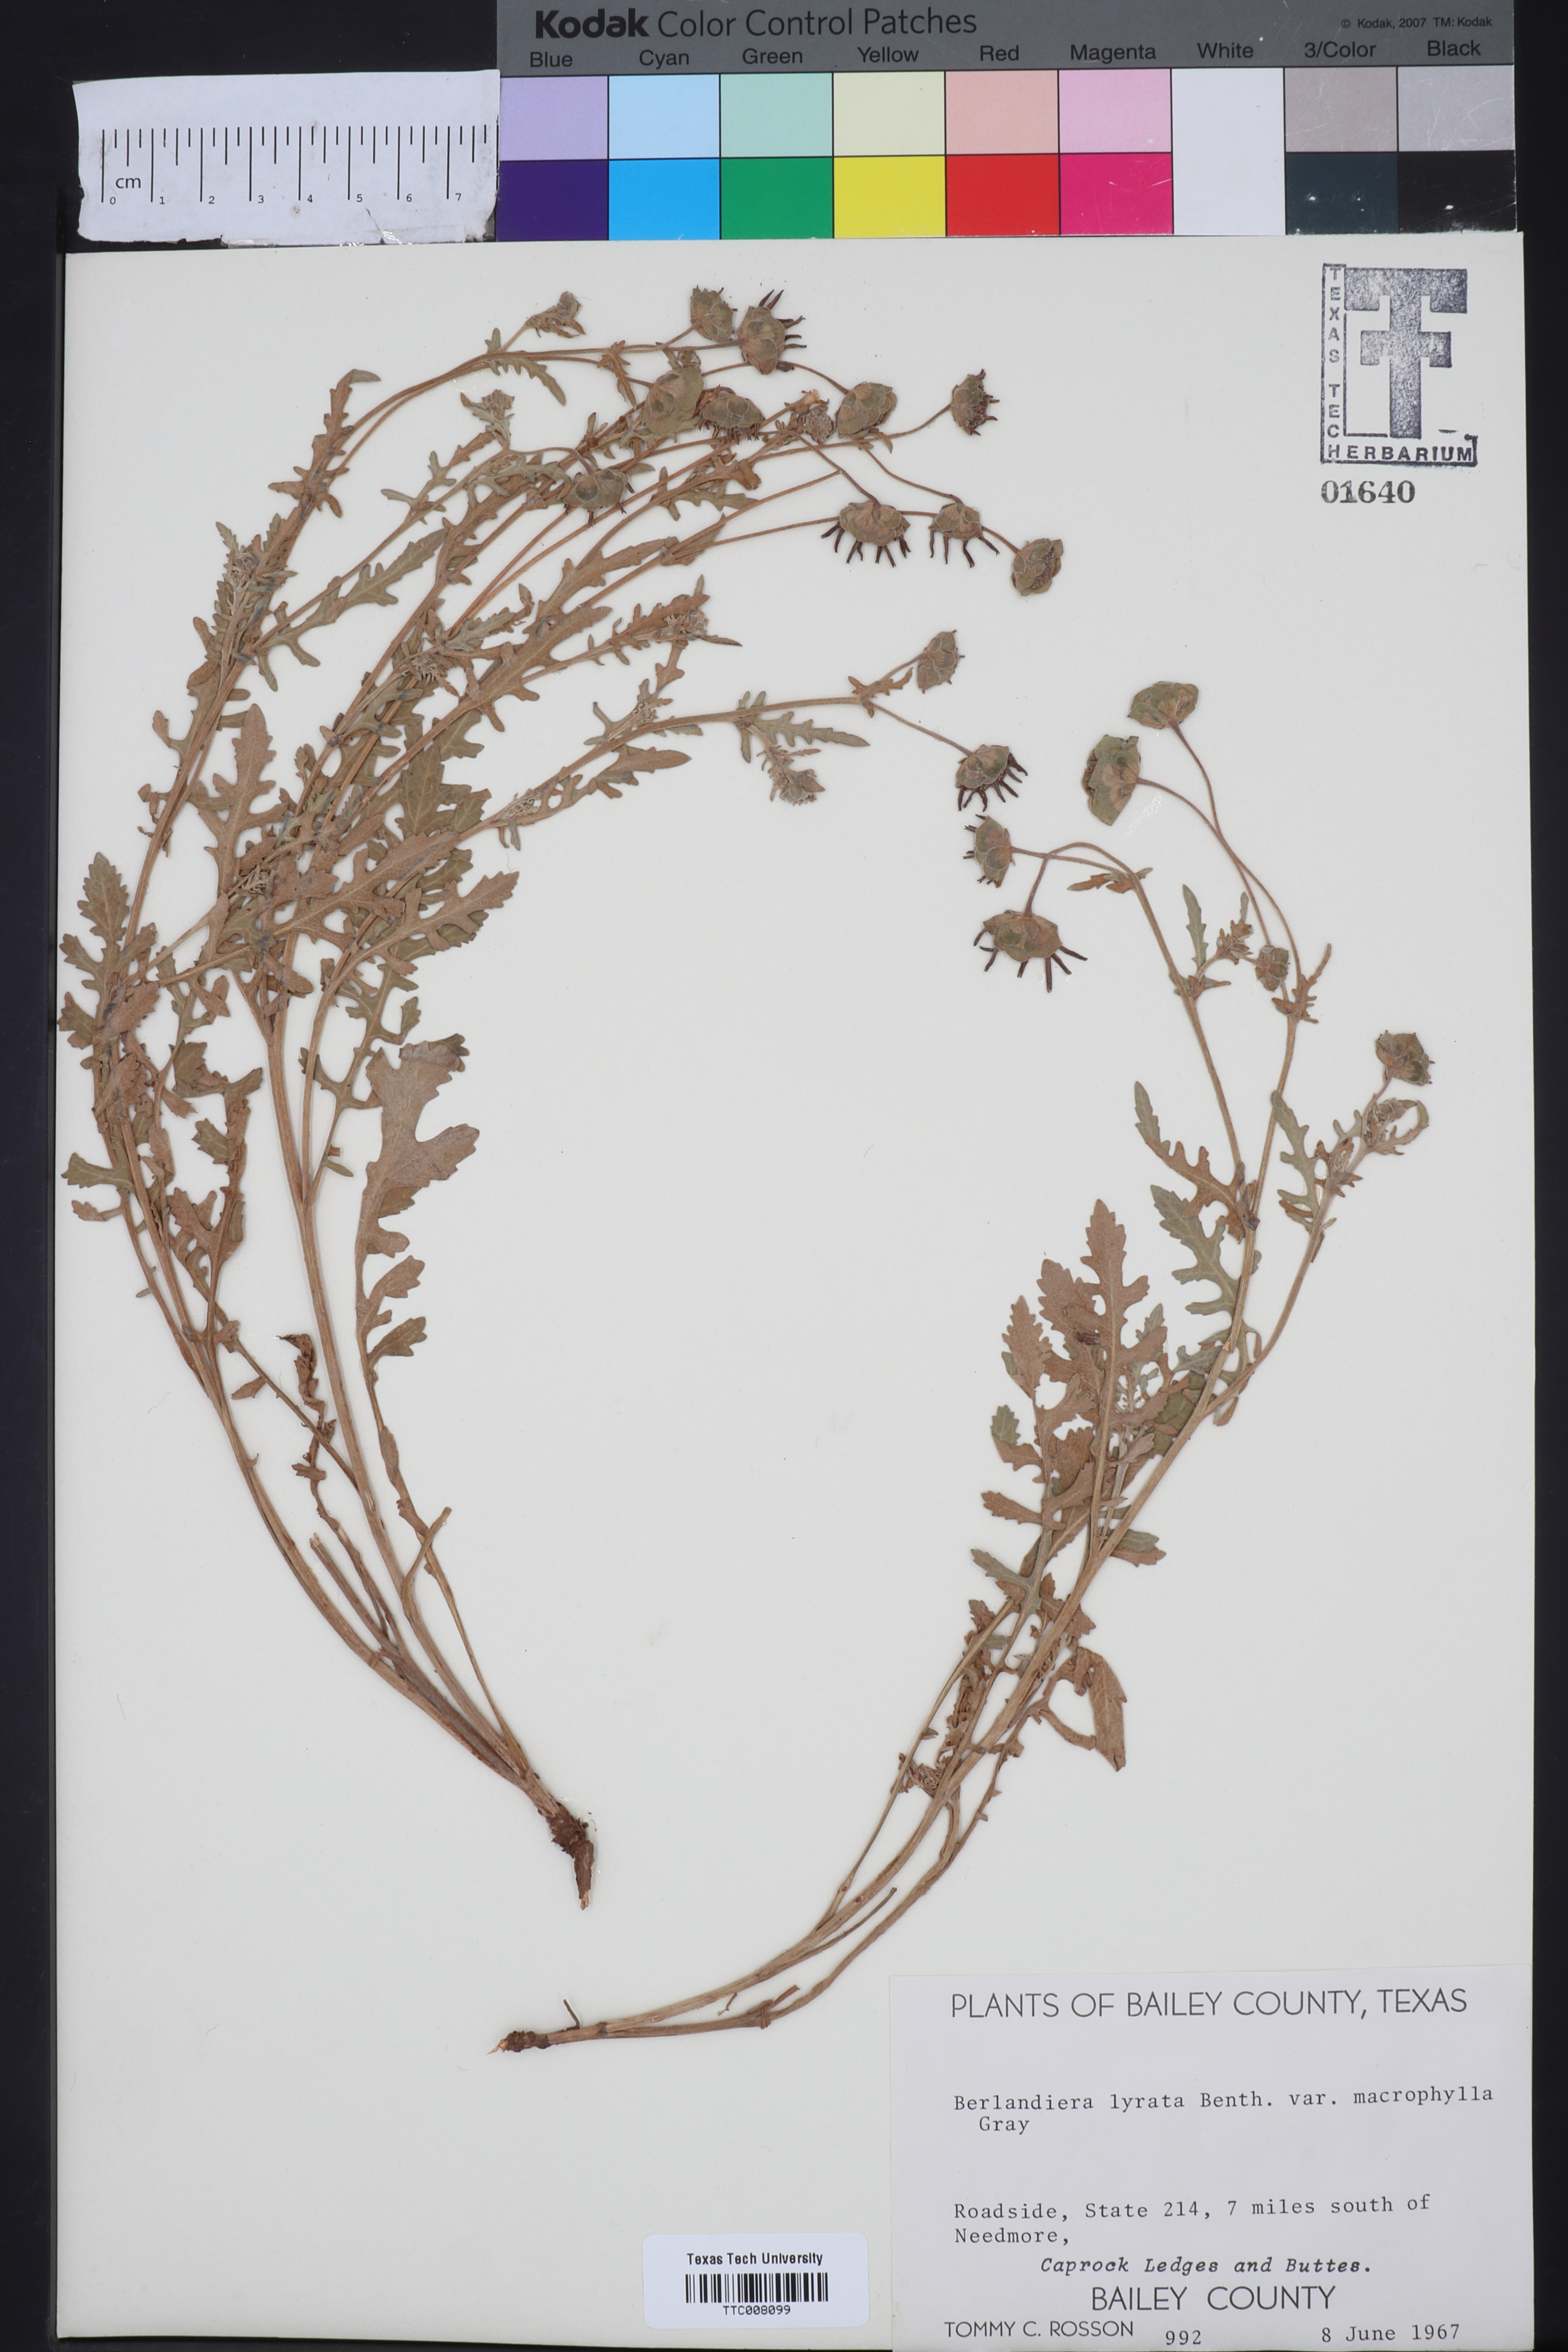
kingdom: Plantae
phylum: Tracheophyta
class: Magnoliopsida
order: Asterales
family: Asteraceae
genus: Berlandiera
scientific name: Berlandiera macrophylla
